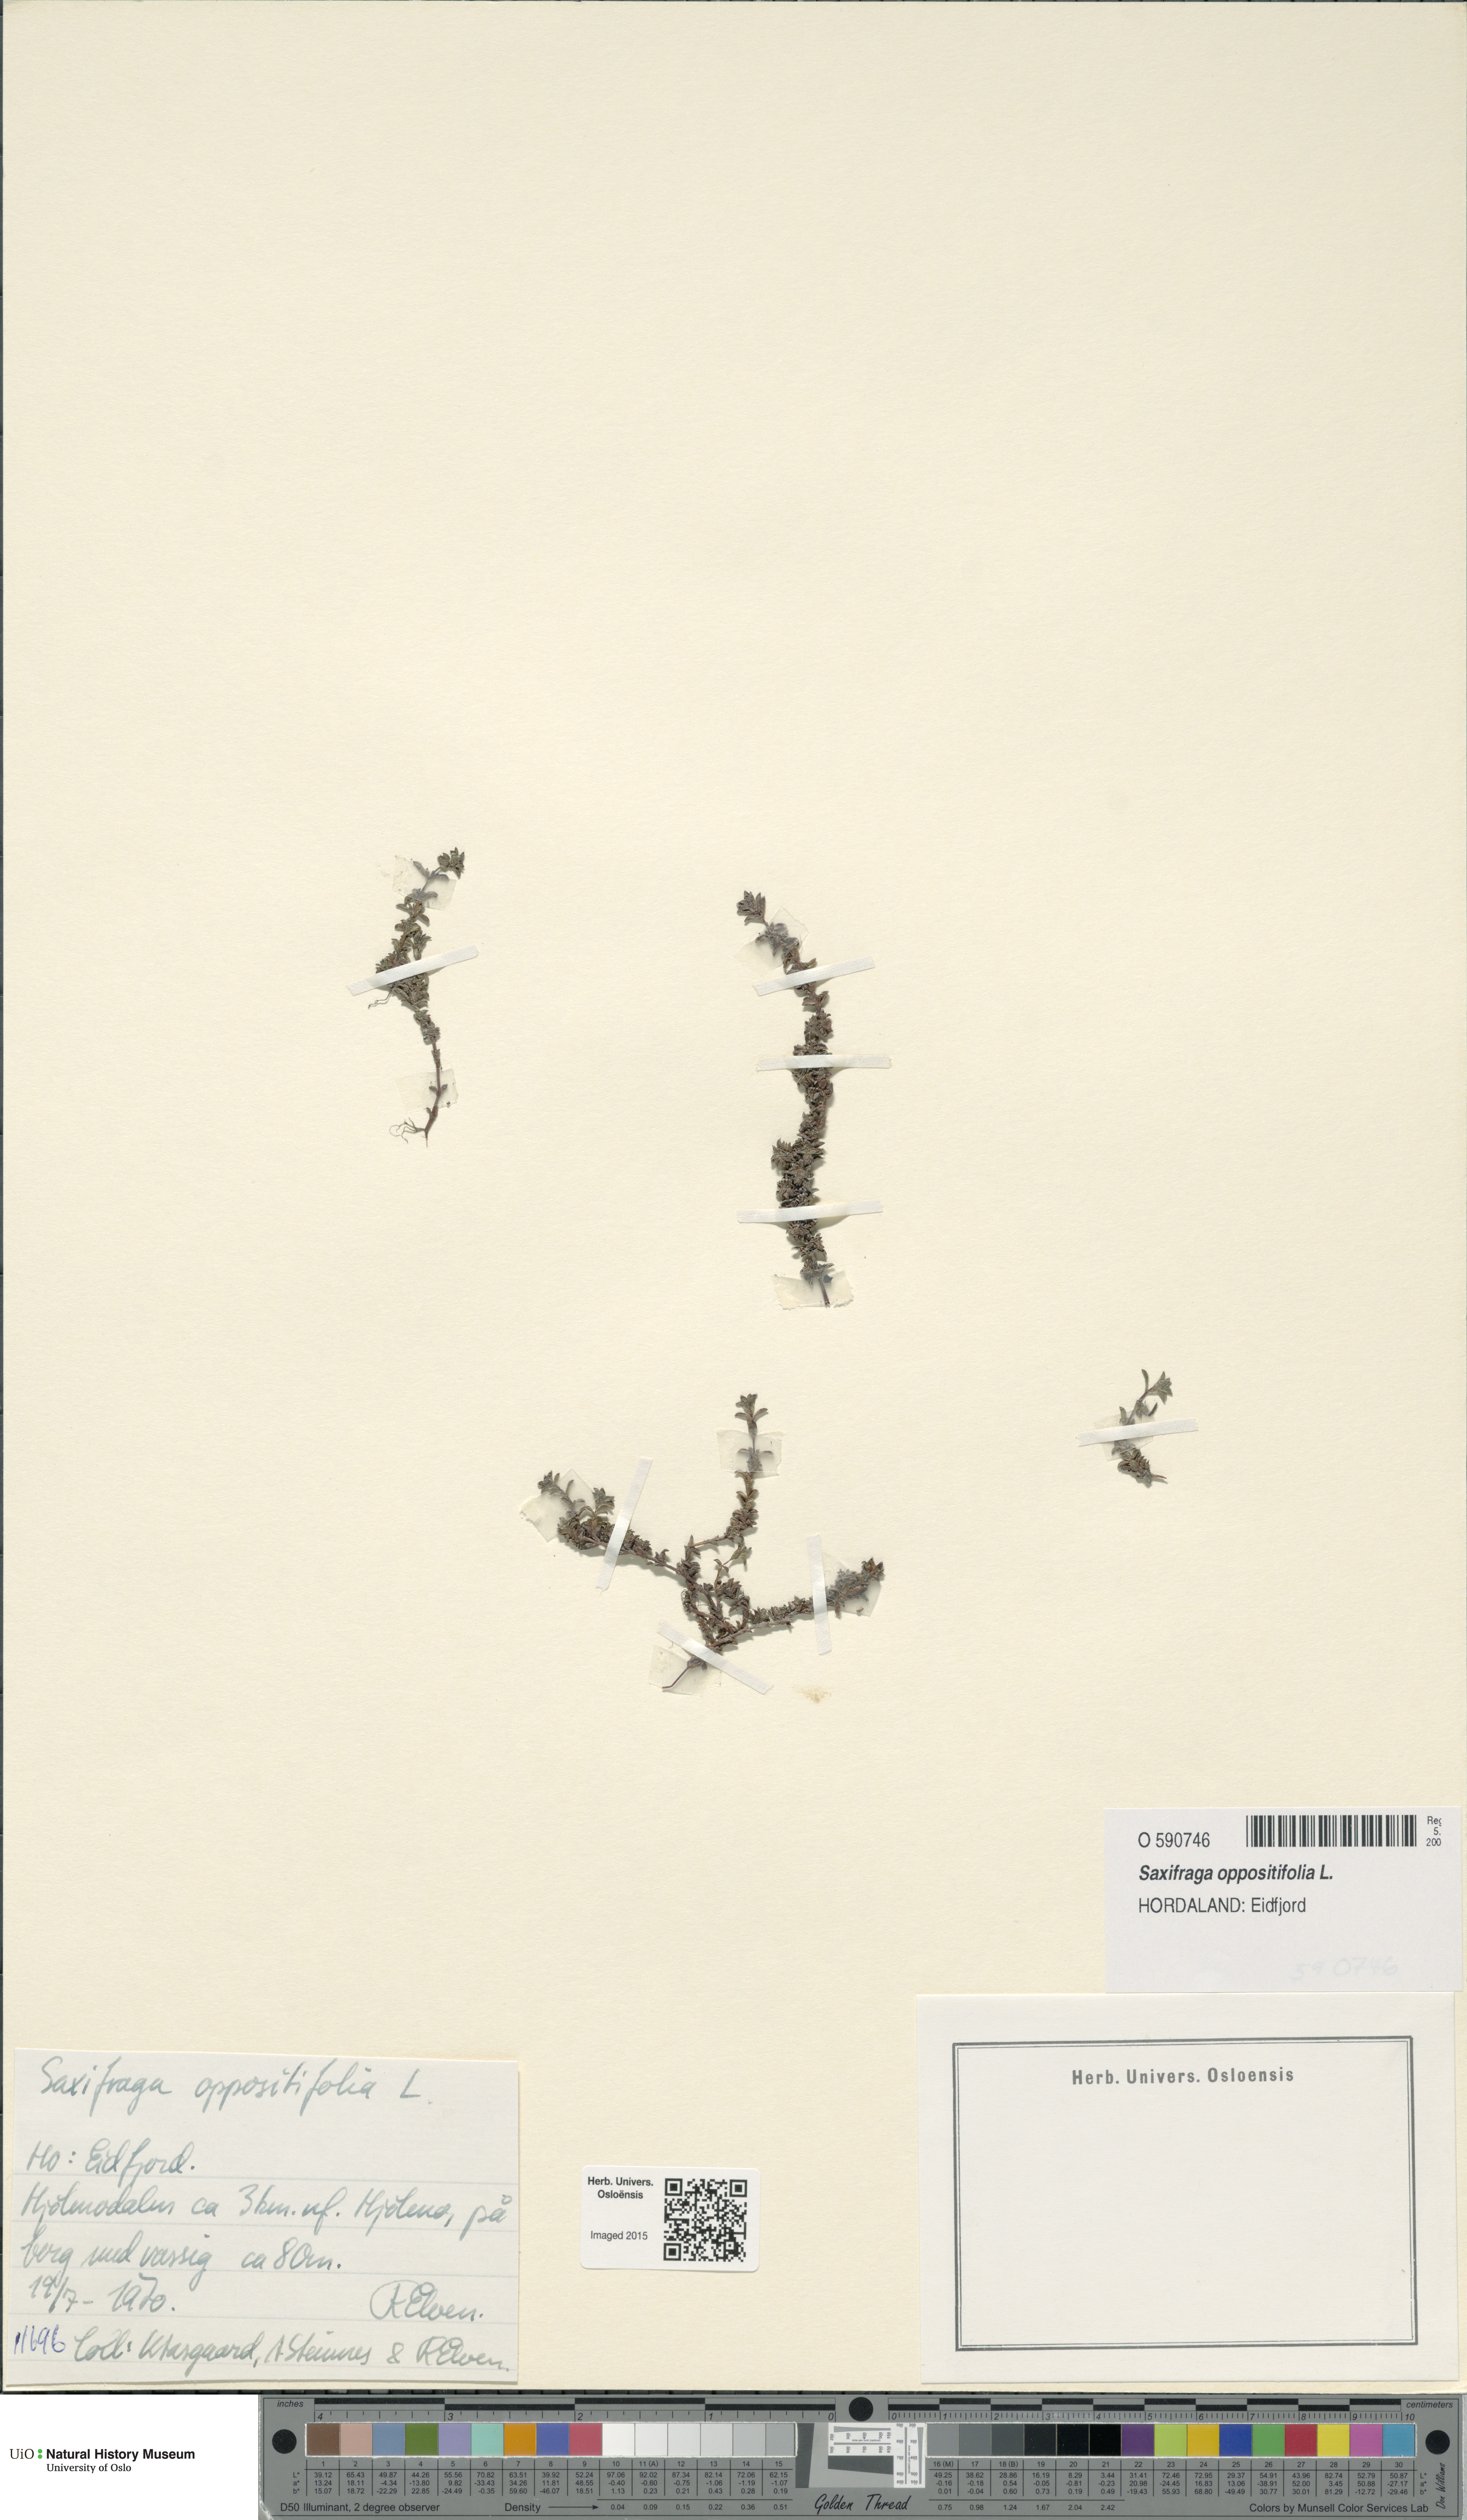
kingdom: Plantae
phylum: Tracheophyta
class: Magnoliopsida
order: Saxifragales
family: Saxifragaceae
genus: Saxifraga
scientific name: Saxifraga oppositifolia
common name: Purple saxifrage
